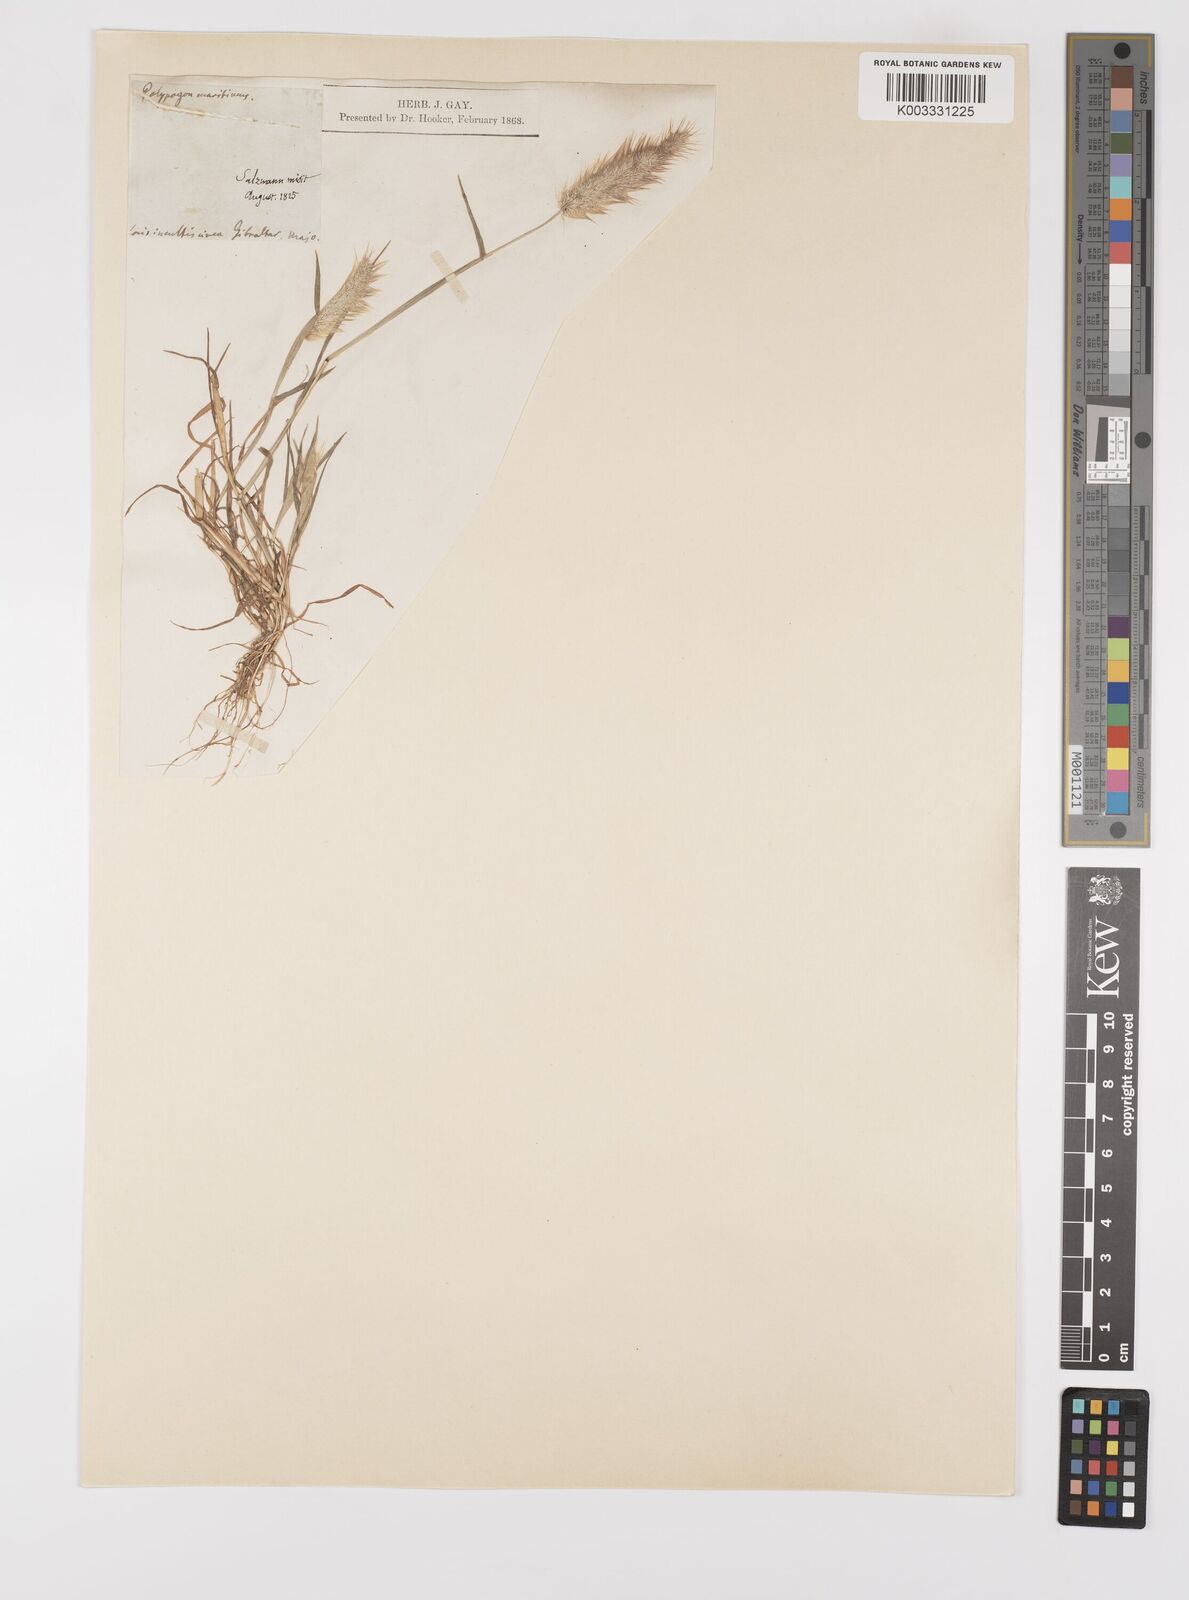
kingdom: Plantae
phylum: Tracheophyta
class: Liliopsida
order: Poales
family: Poaceae
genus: Polypogon
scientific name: Polypogon maritimus
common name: Mediterranean rabbitsfoot grass
